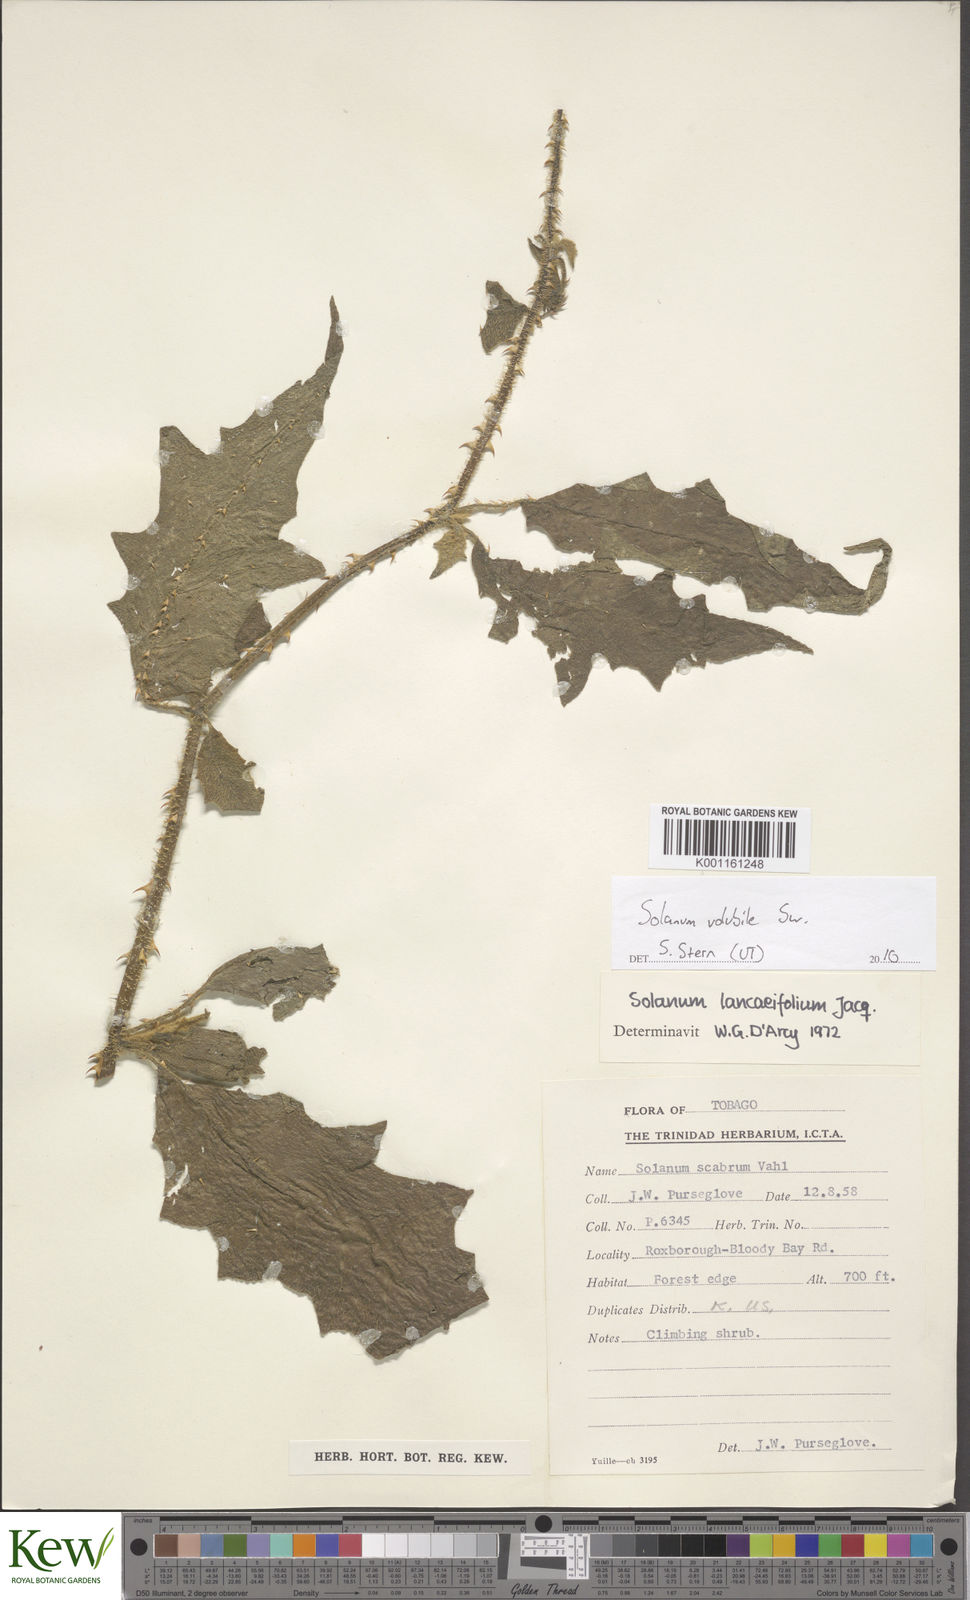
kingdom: Plantae
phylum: Tracheophyta
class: Magnoliopsida
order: Solanales
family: Solanaceae
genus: Solanum
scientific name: Solanum volubile
